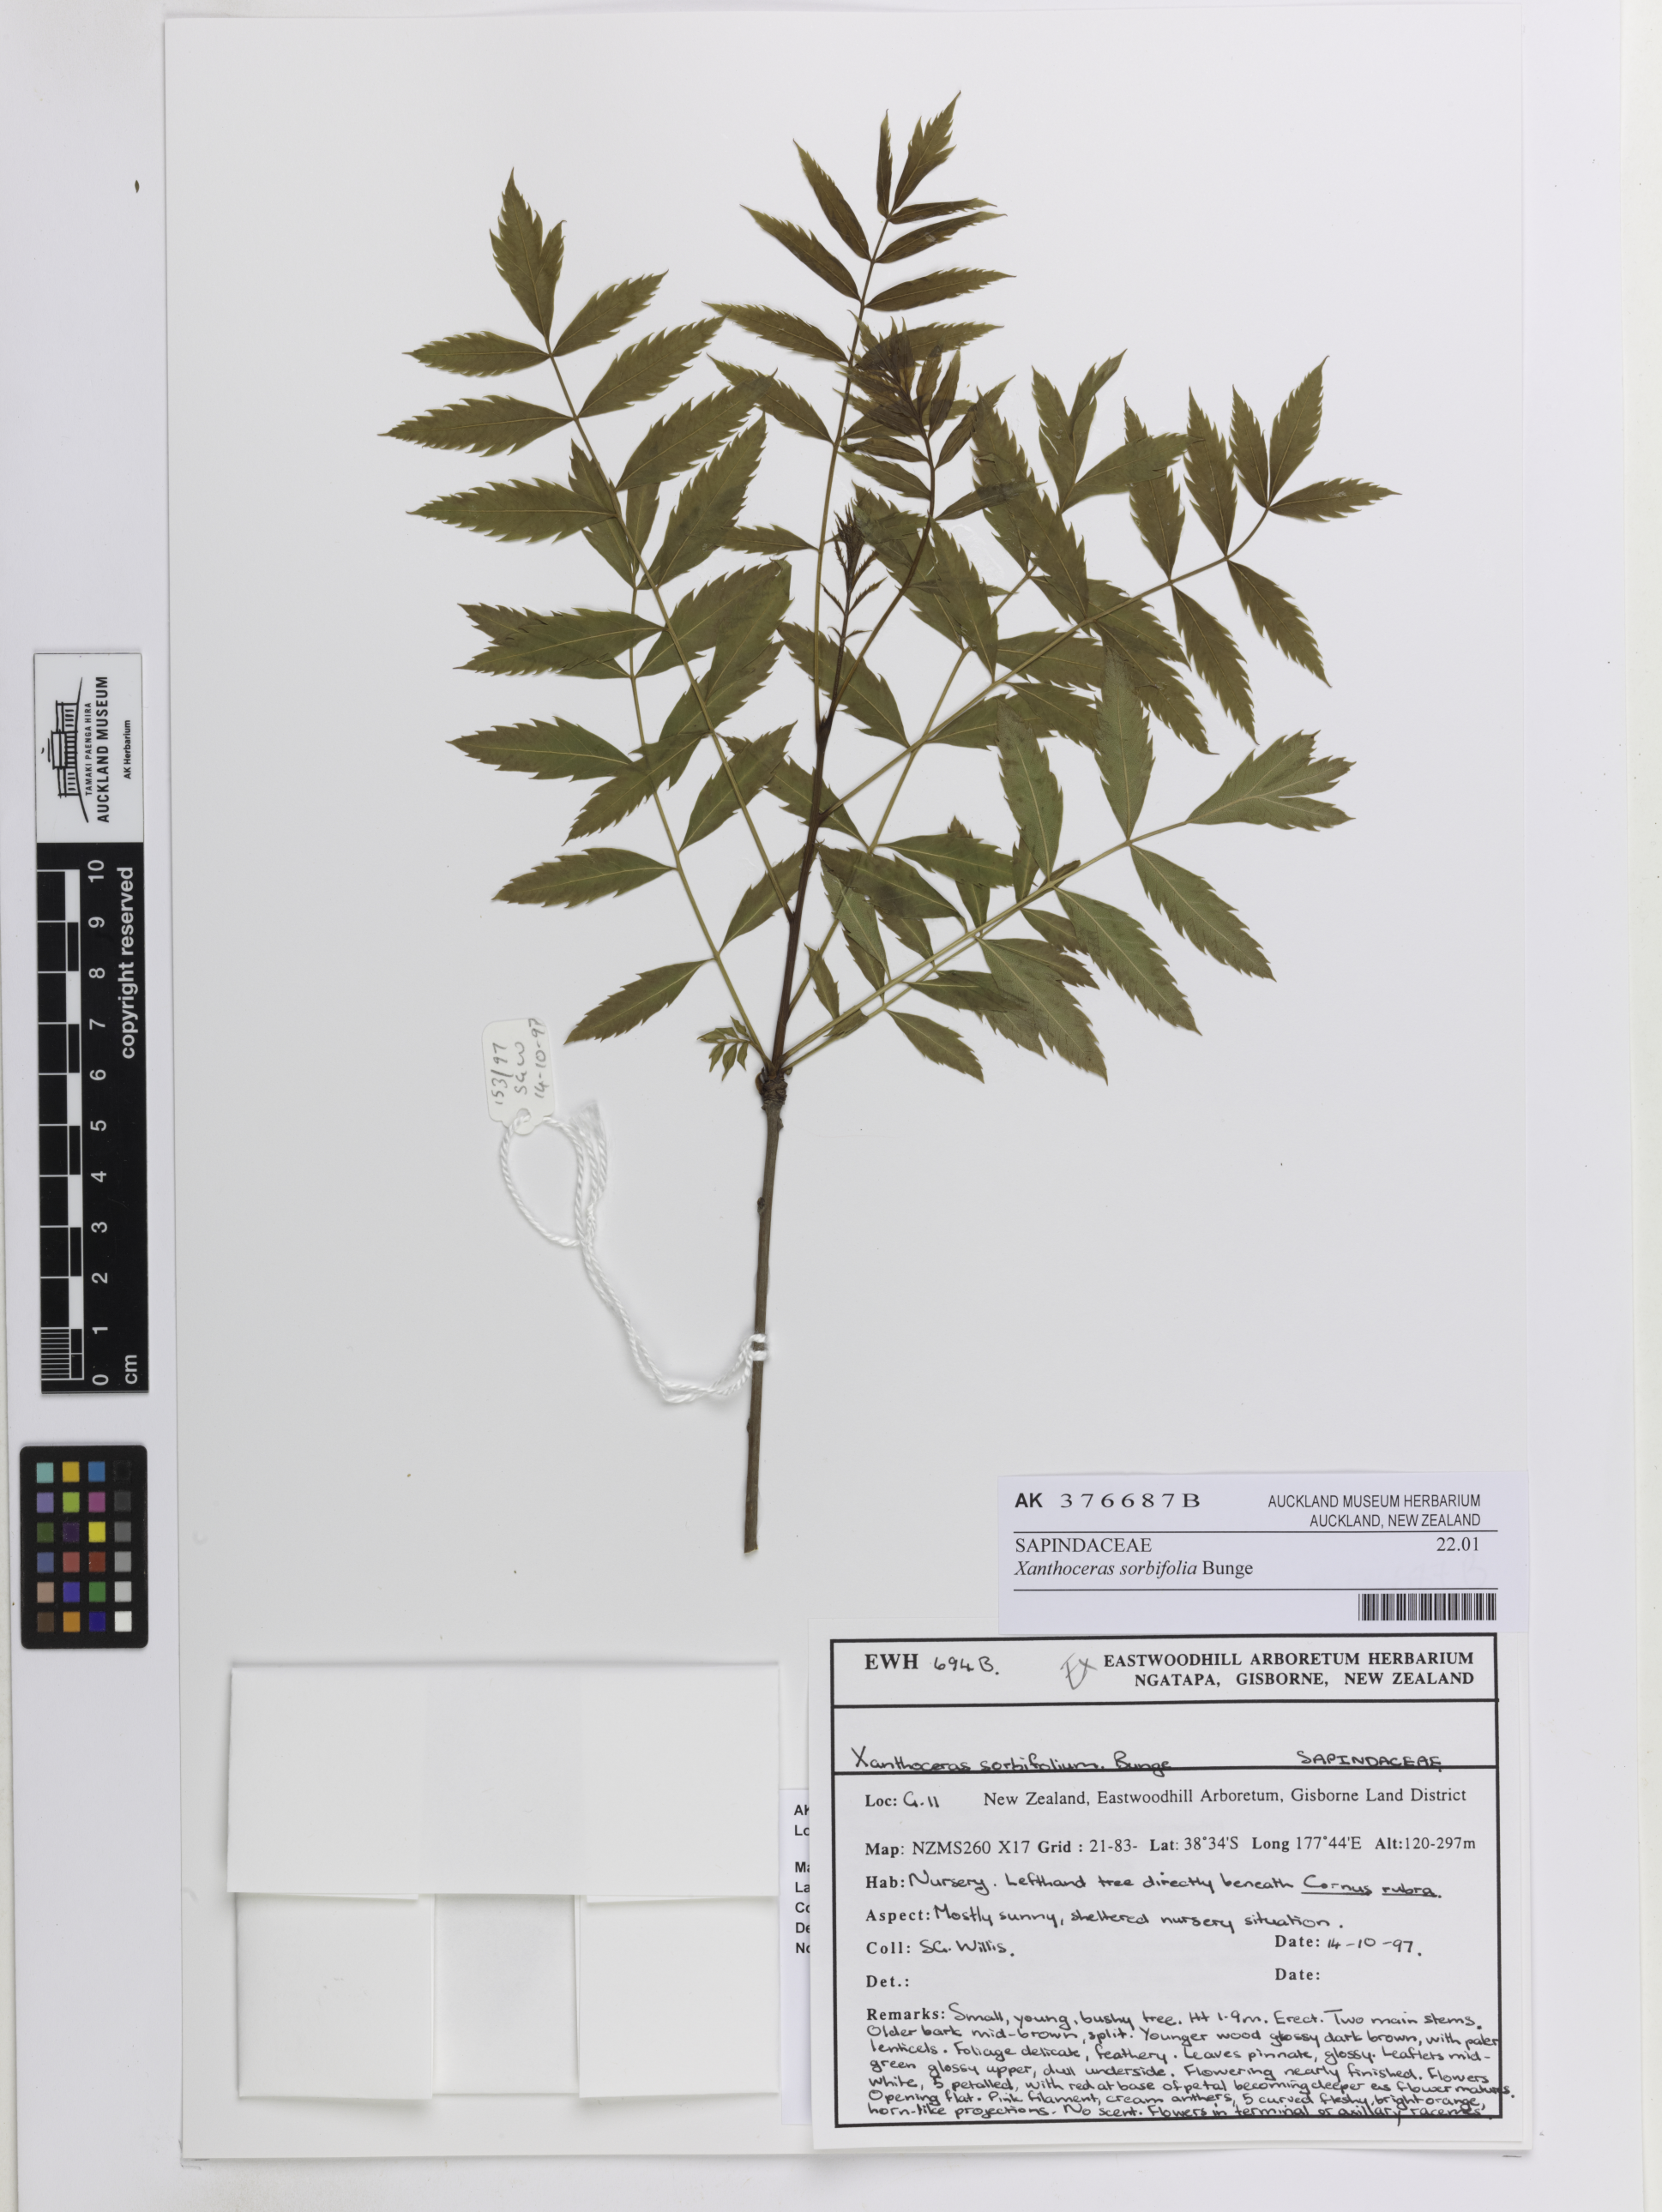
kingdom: Plantae
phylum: Tracheophyta
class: Magnoliopsida
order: Sapindales
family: Sapindaceae
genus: Xanthoceras
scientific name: Xanthoceras sorbifolia
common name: Yellow-horn
